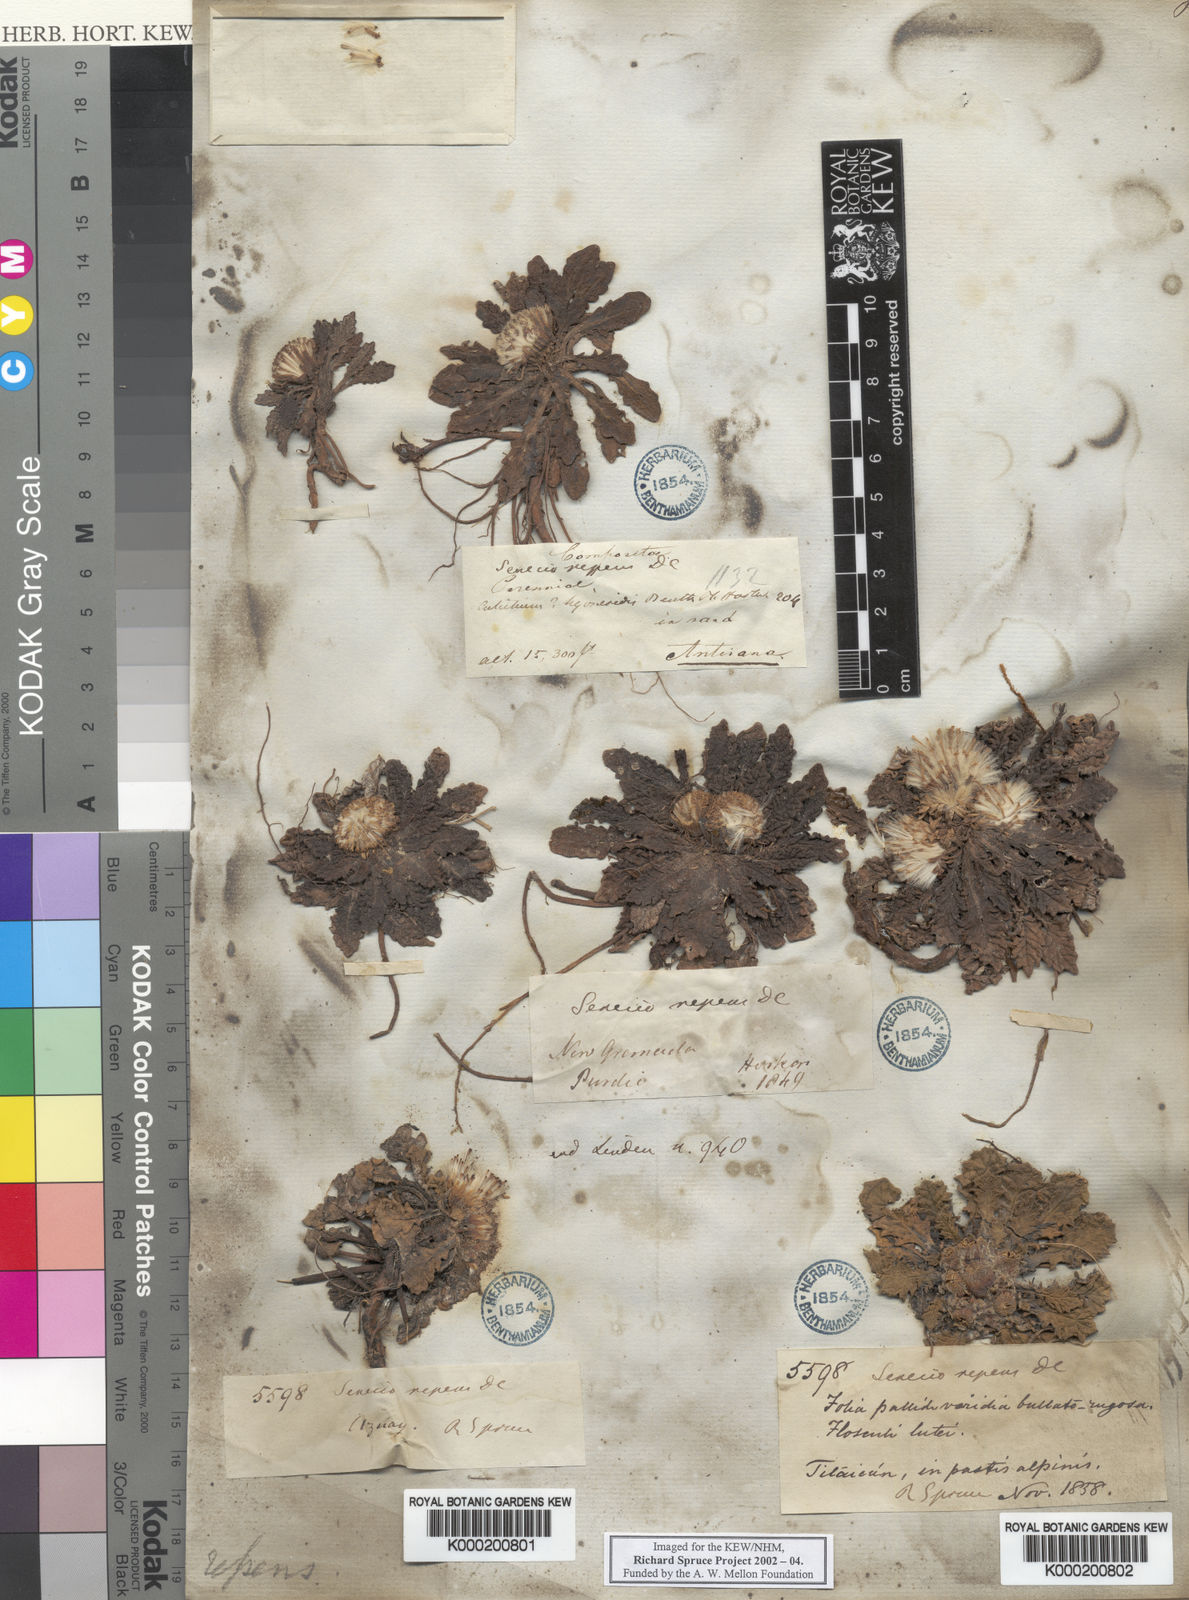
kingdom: Plantae
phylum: Tracheophyta
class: Magnoliopsida
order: Asterales
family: Asteraceae
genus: Senecio
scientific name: Senecio rhizocephalus
